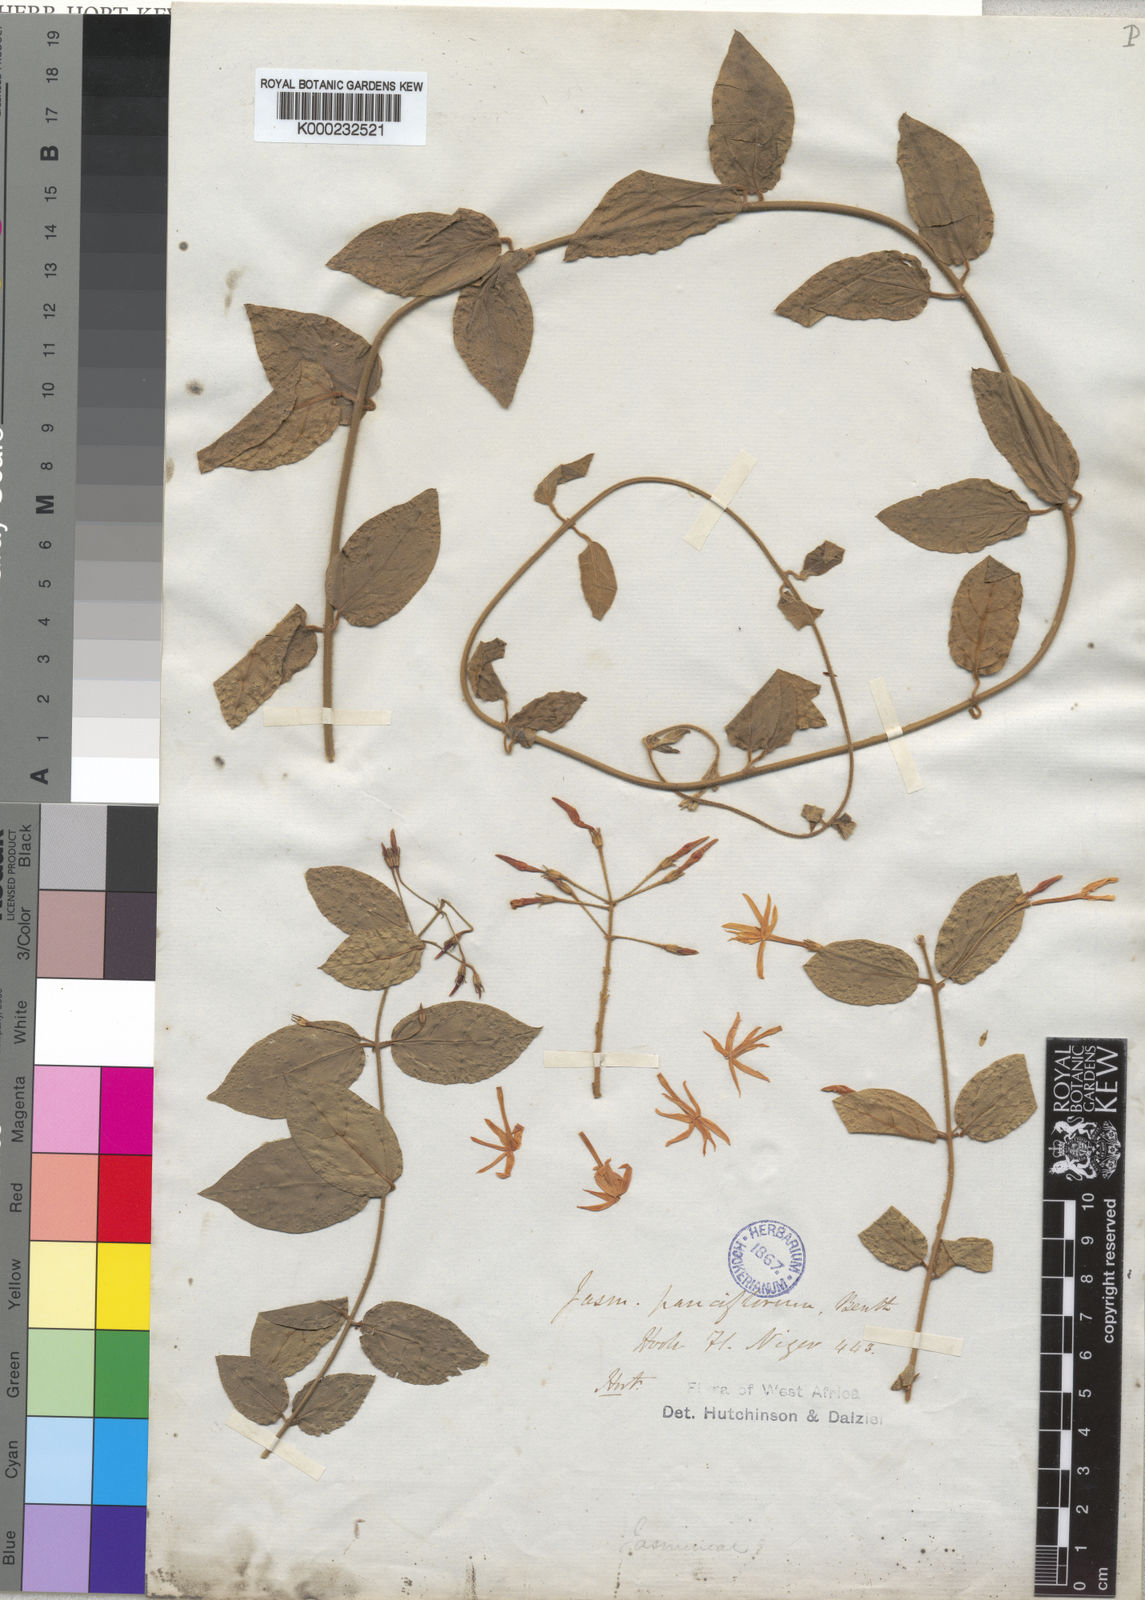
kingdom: Plantae
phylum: Tracheophyta
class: Magnoliopsida
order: Lamiales
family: Oleaceae
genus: Jasminum
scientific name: Jasminum pauciflorum
